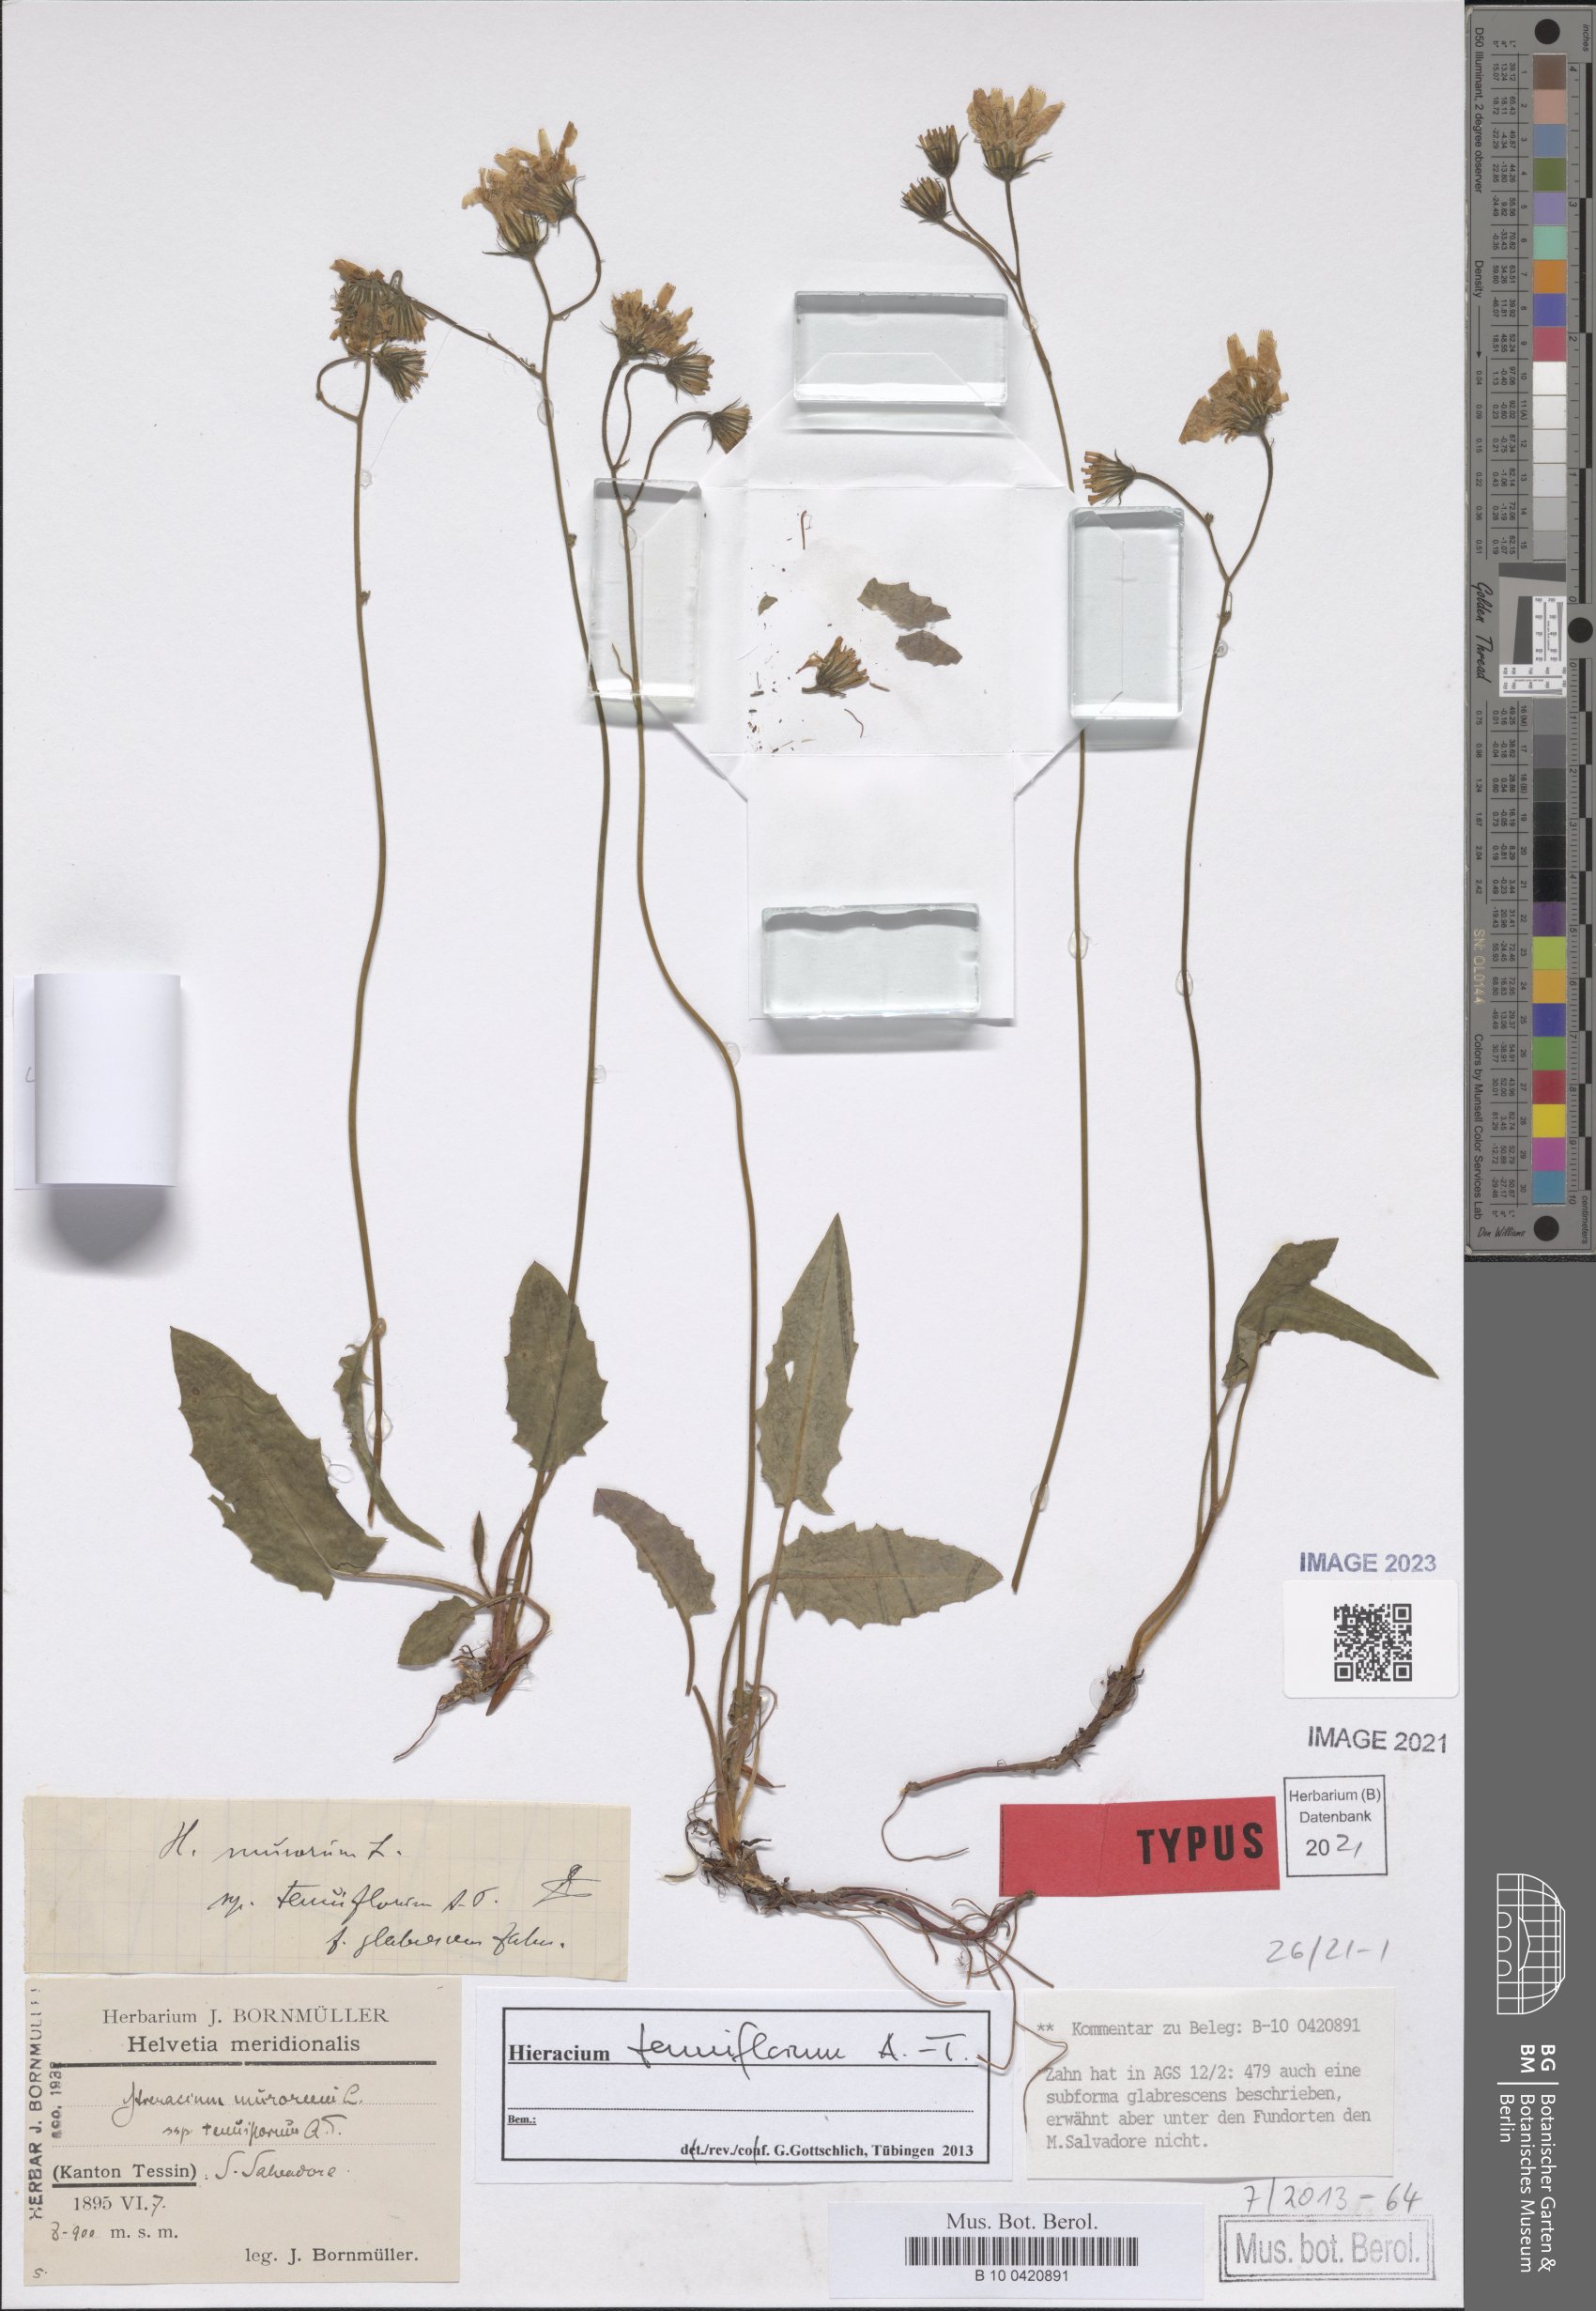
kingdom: Plantae
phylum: Tracheophyta
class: Magnoliopsida
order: Asterales
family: Asteraceae
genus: Hieracium
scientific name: Hieracium caesium
